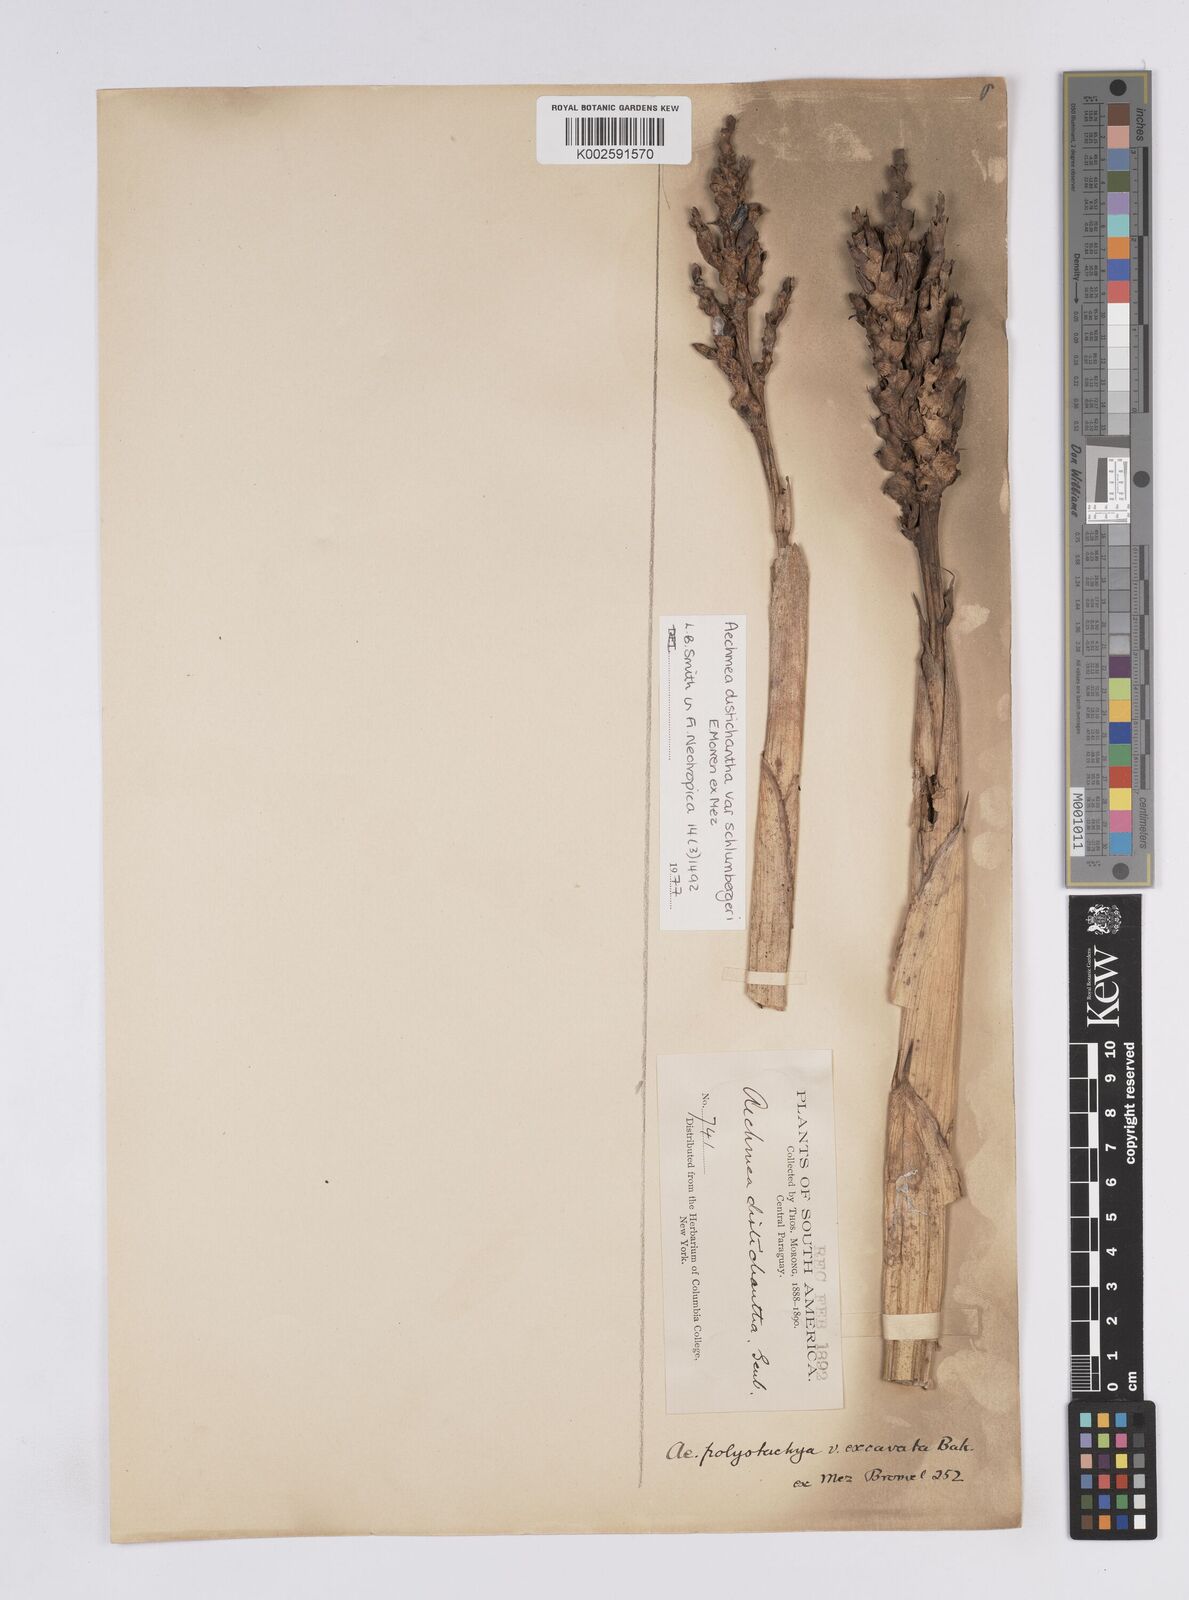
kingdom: Plantae
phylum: Tracheophyta
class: Liliopsida
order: Poales
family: Bromeliaceae
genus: Aechmea
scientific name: Aechmea distichantha
